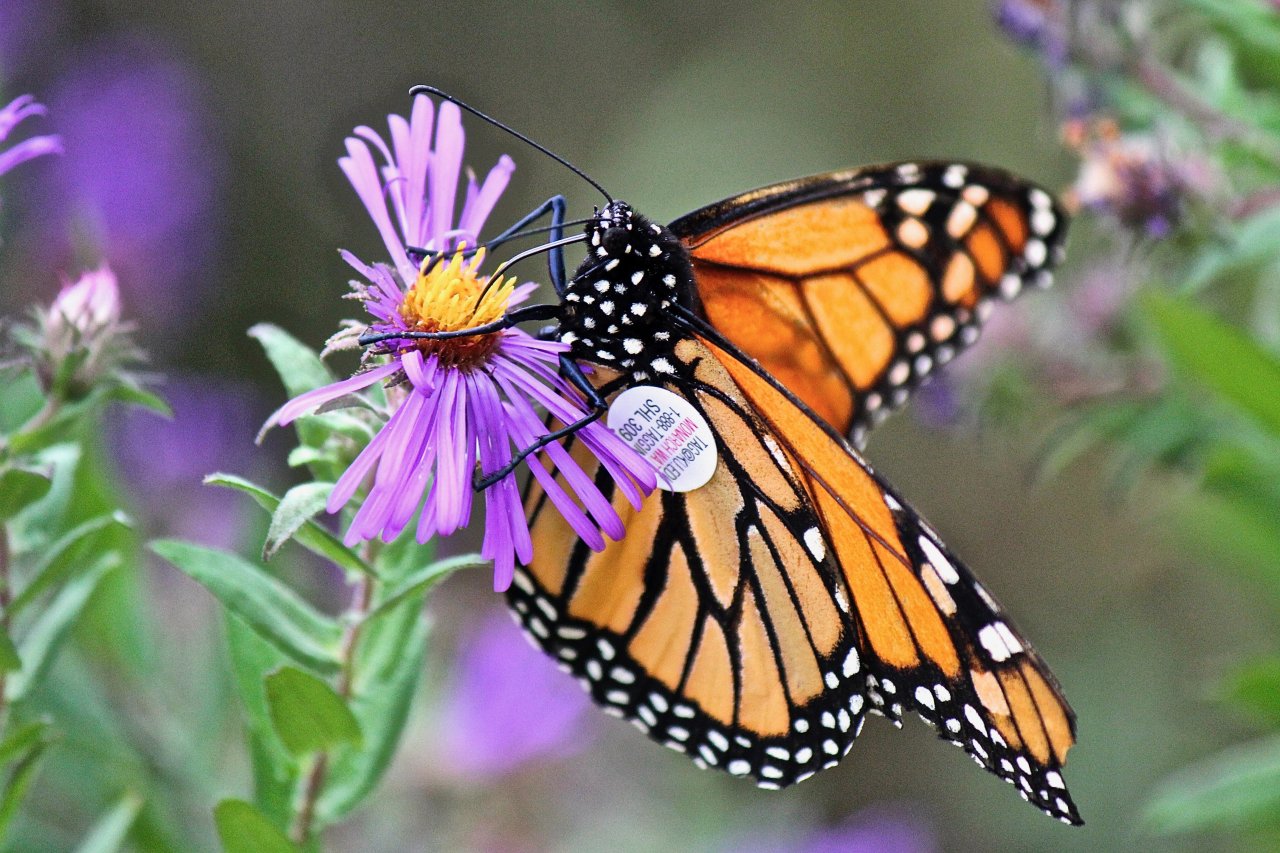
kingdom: Animalia
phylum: Arthropoda
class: Insecta
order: Lepidoptera
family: Nymphalidae
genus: Danaus
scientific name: Danaus plexippus
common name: Monarch
